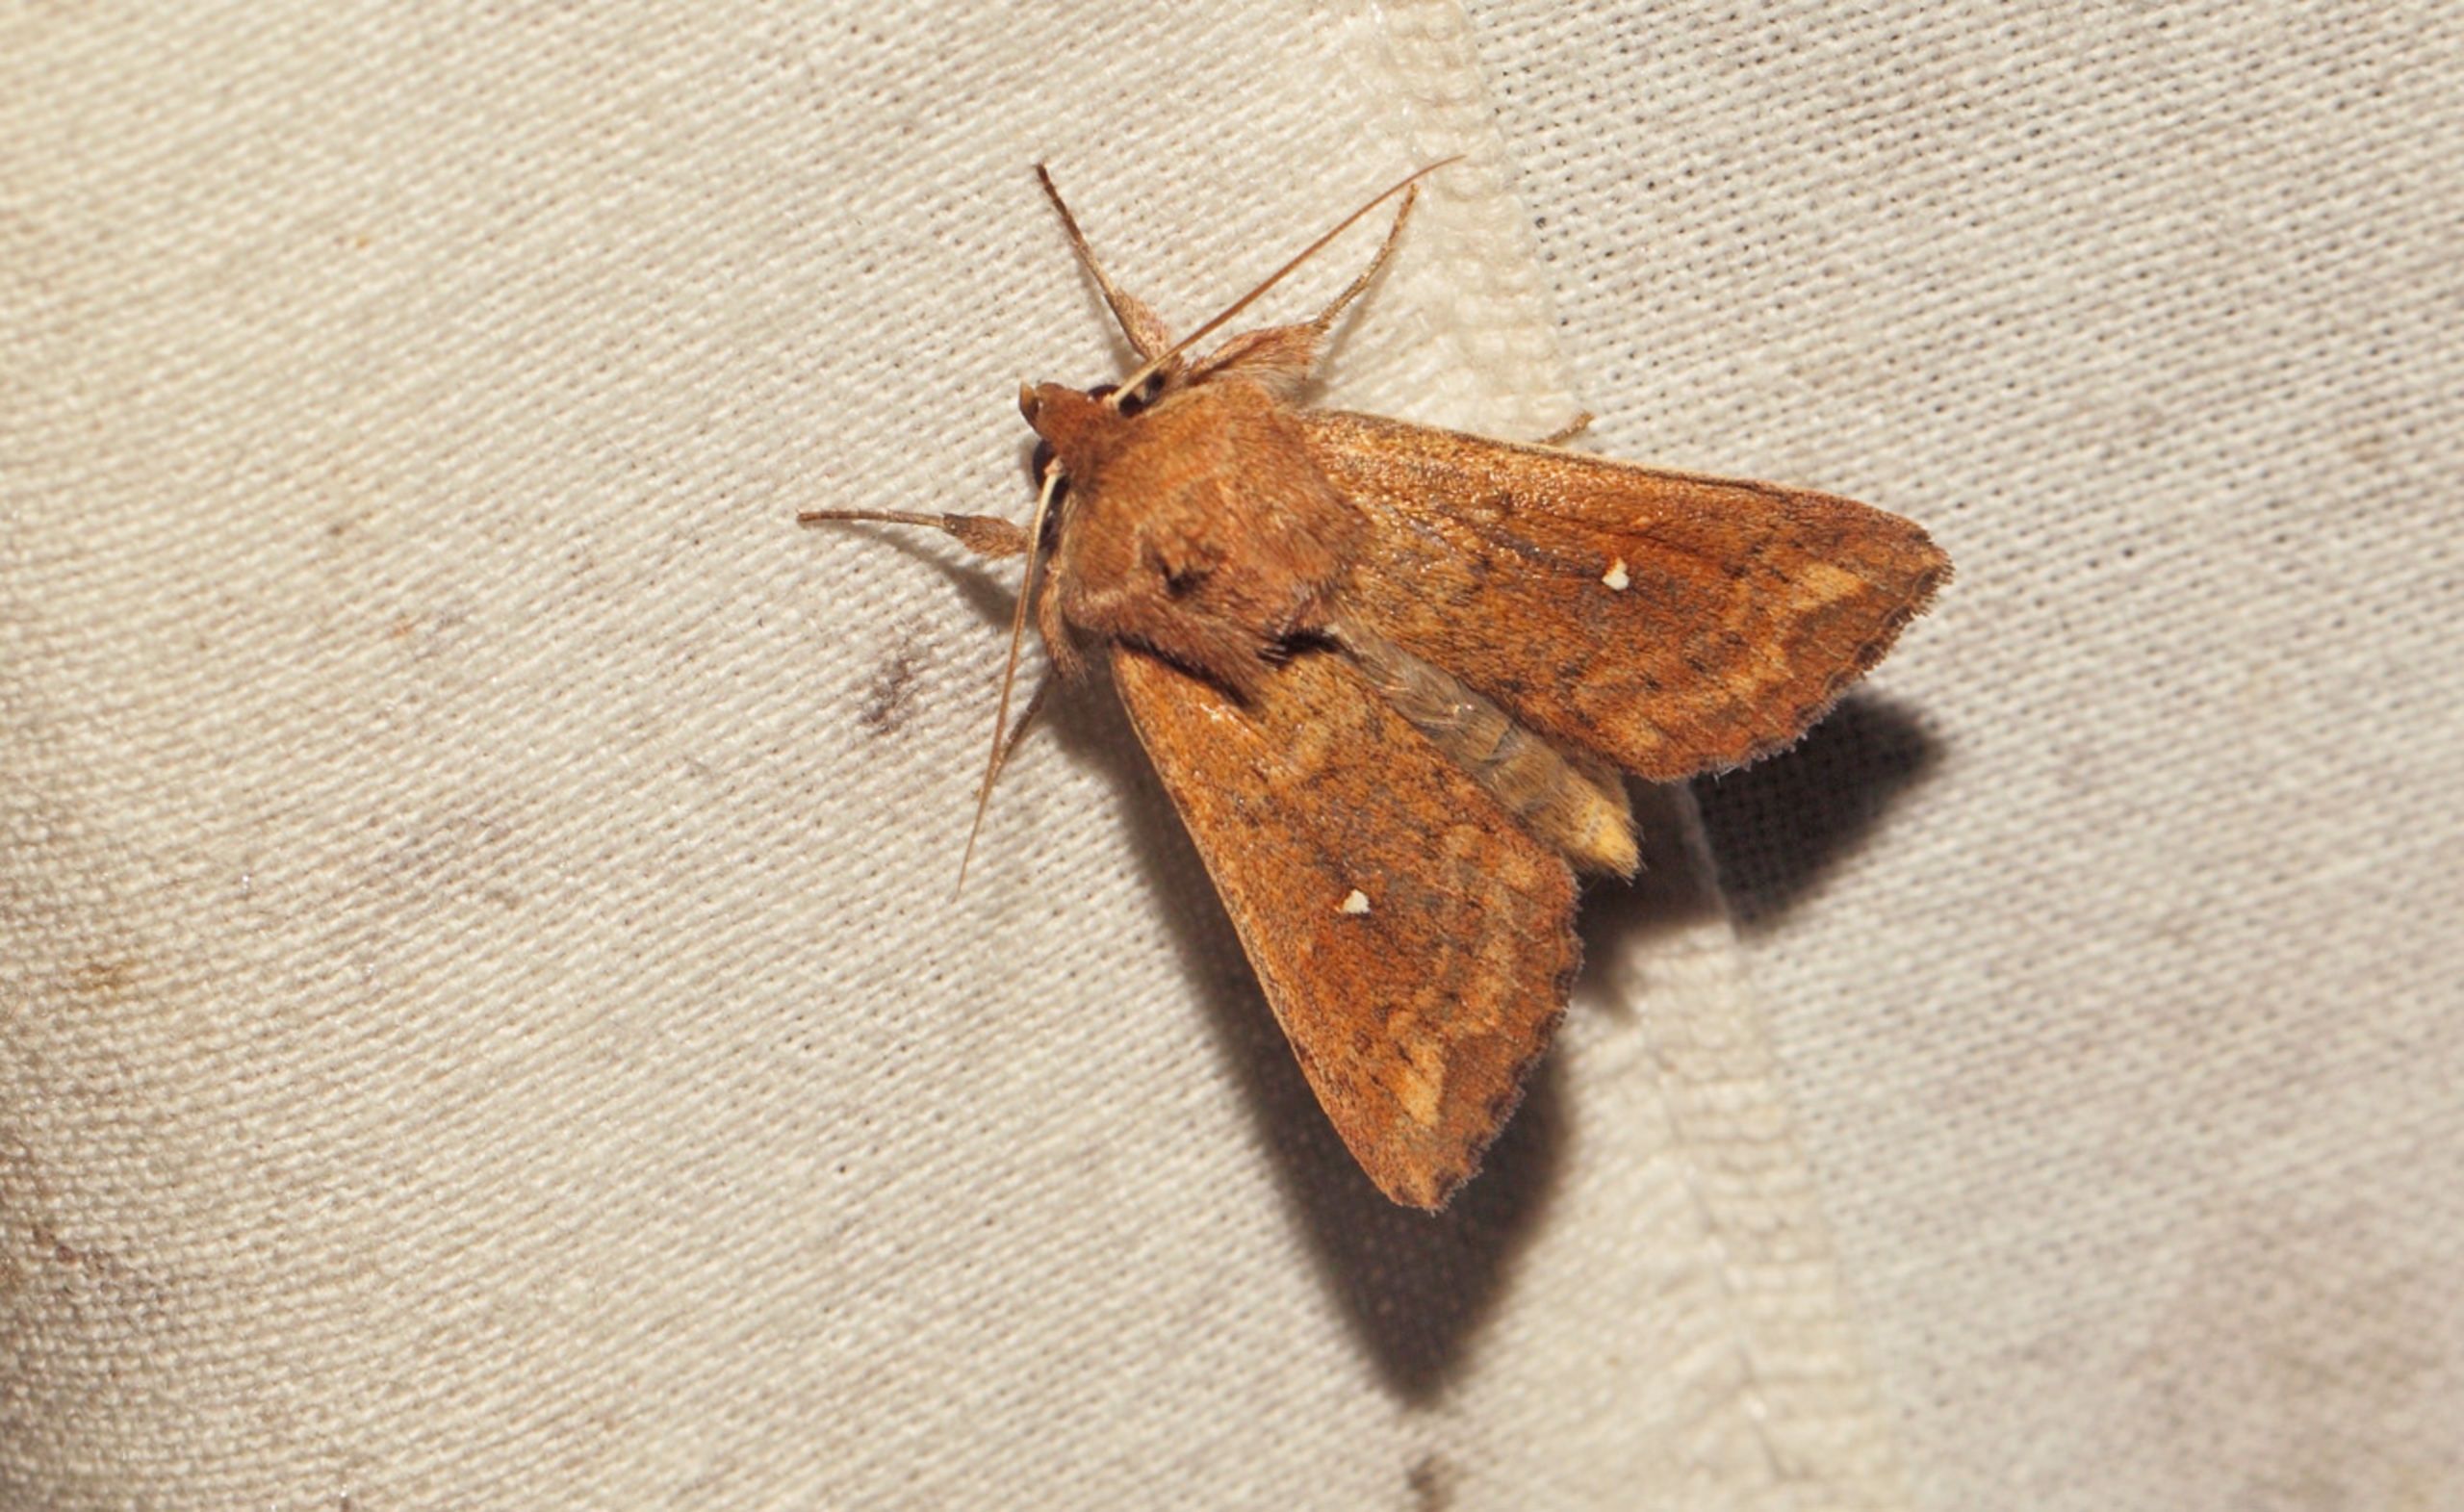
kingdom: Animalia
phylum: Arthropoda
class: Insecta
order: Lepidoptera
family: Noctuidae
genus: Mythimna
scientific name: Mythimna albipuncta
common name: Hvid-punkt græsugle
